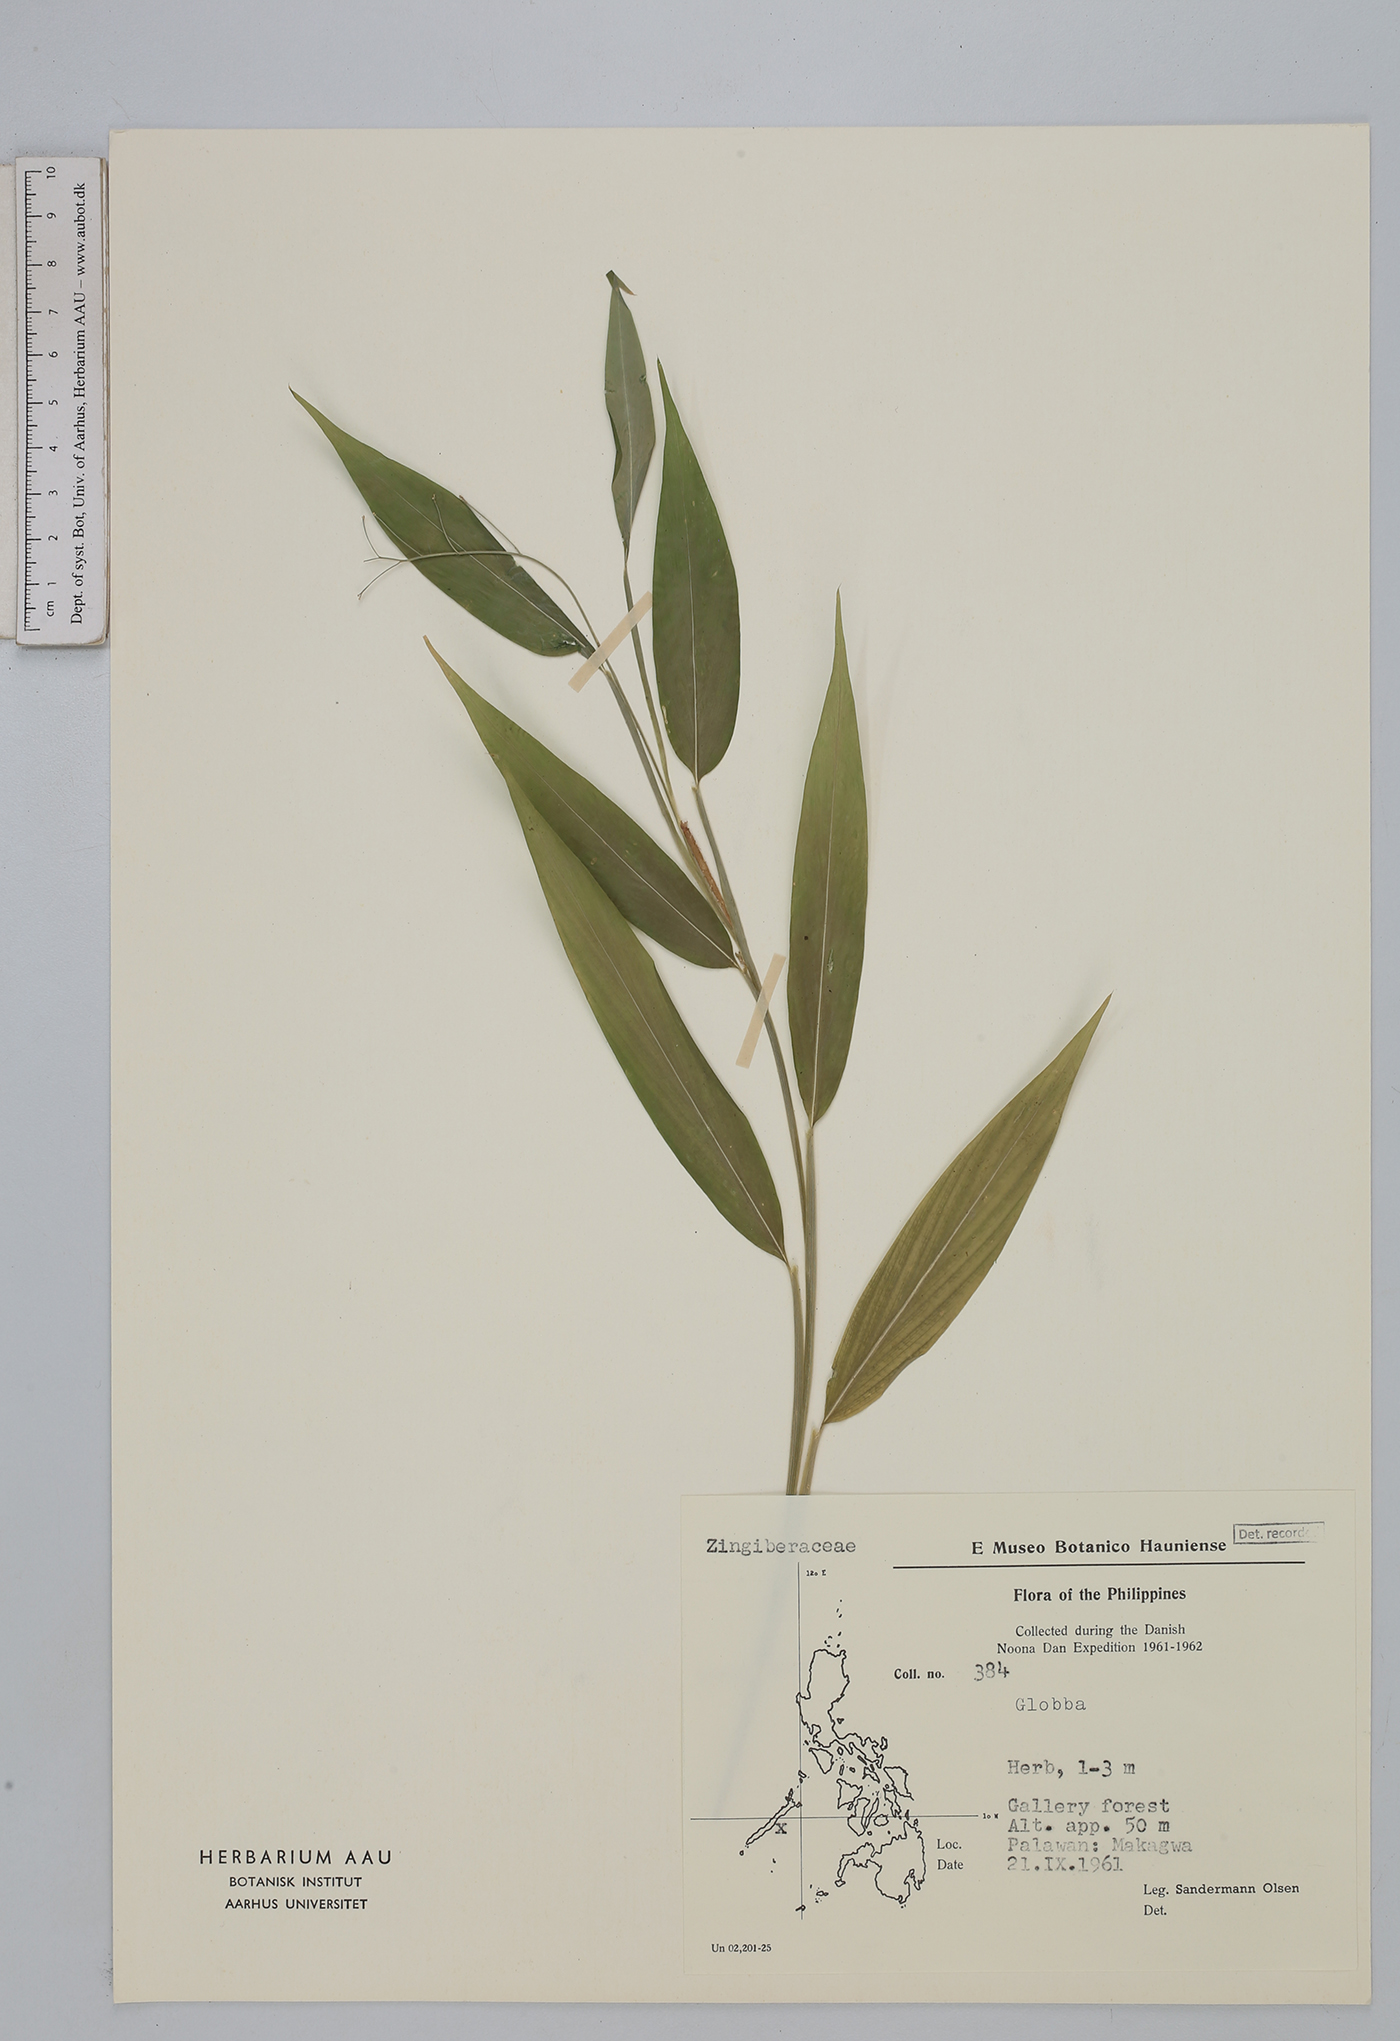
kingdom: Plantae
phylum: Tracheophyta
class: Liliopsida
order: Zingiberales
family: Zingiberaceae
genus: Globba
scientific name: Globba
